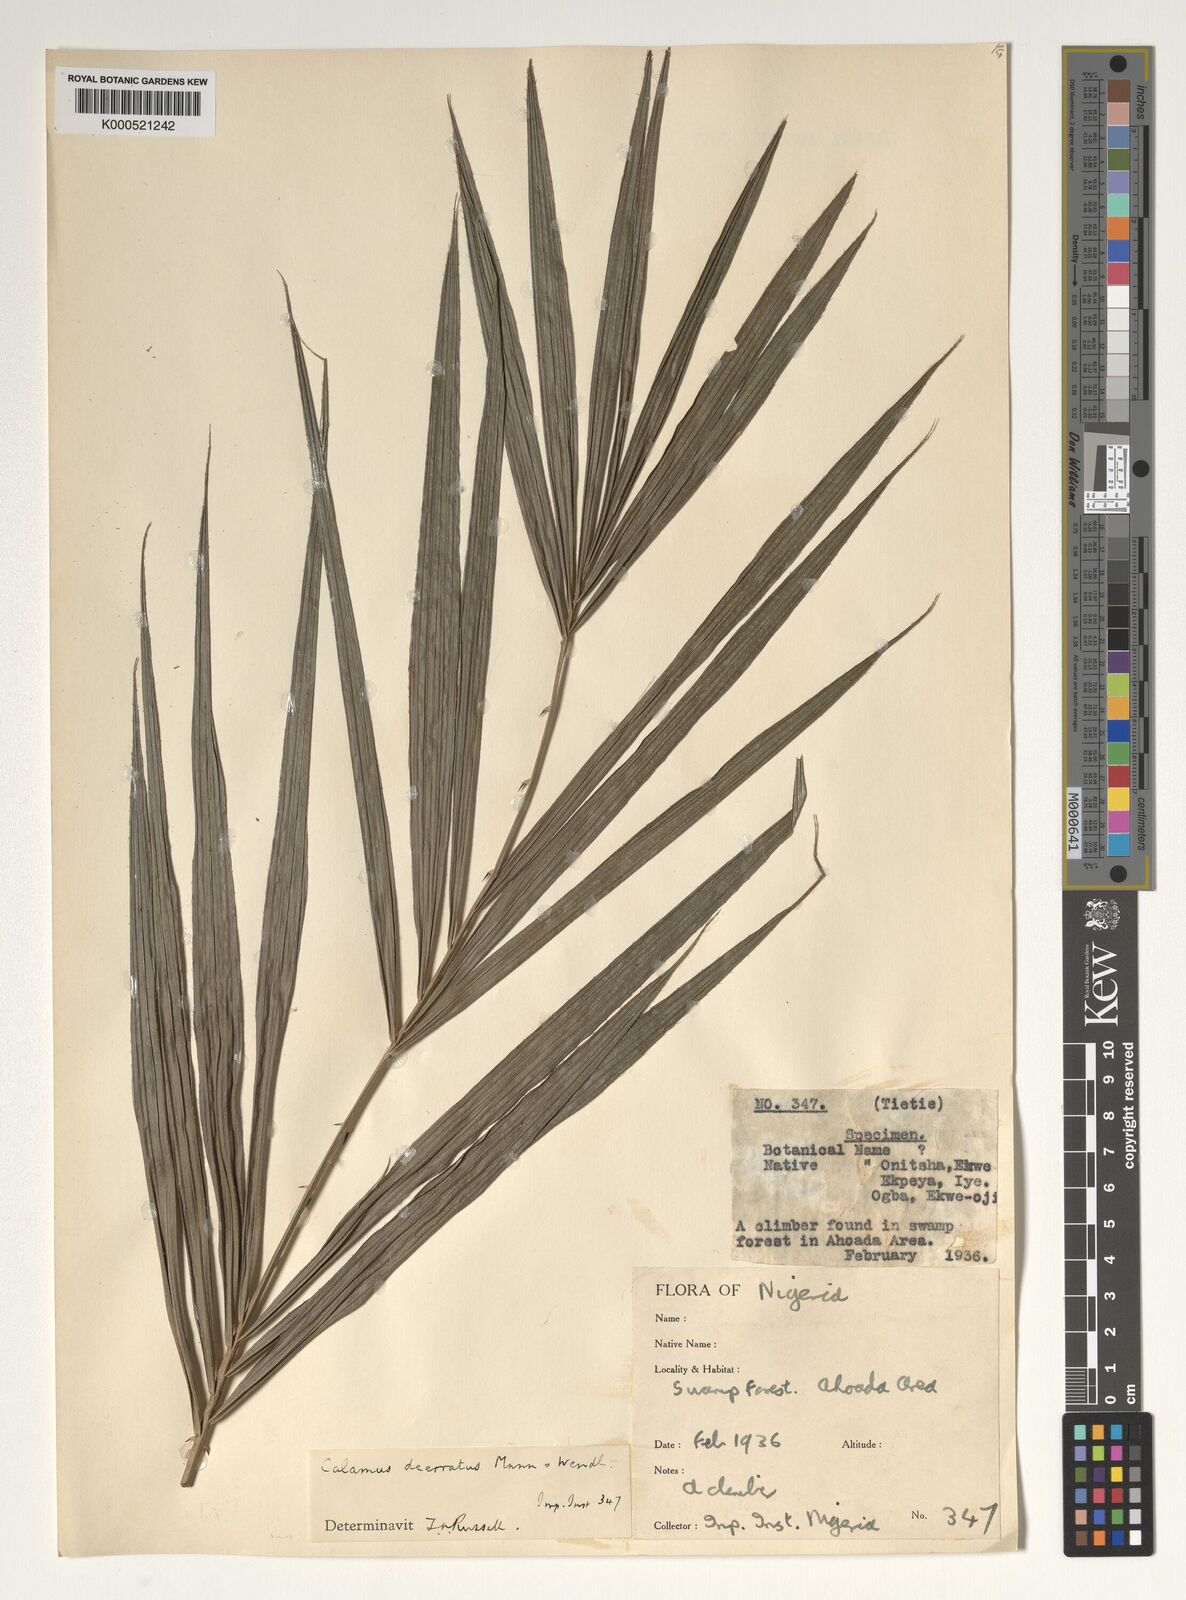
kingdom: Plantae
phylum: Tracheophyta
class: Liliopsida
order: Arecales
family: Arecaceae
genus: Calamus
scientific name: Calamus deerratus
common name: Rattan
